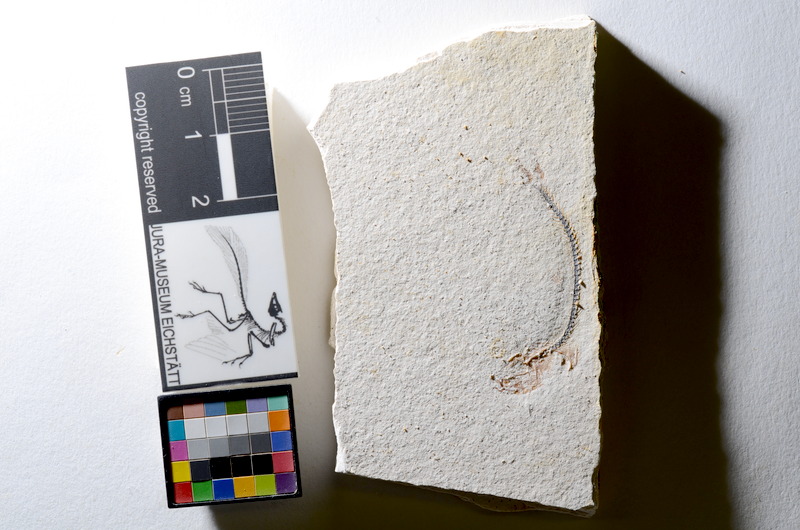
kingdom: Animalia
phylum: Chordata
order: Salmoniformes
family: Orthogonikleithridae
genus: Orthogonikleithrus
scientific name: Orthogonikleithrus hoelli
